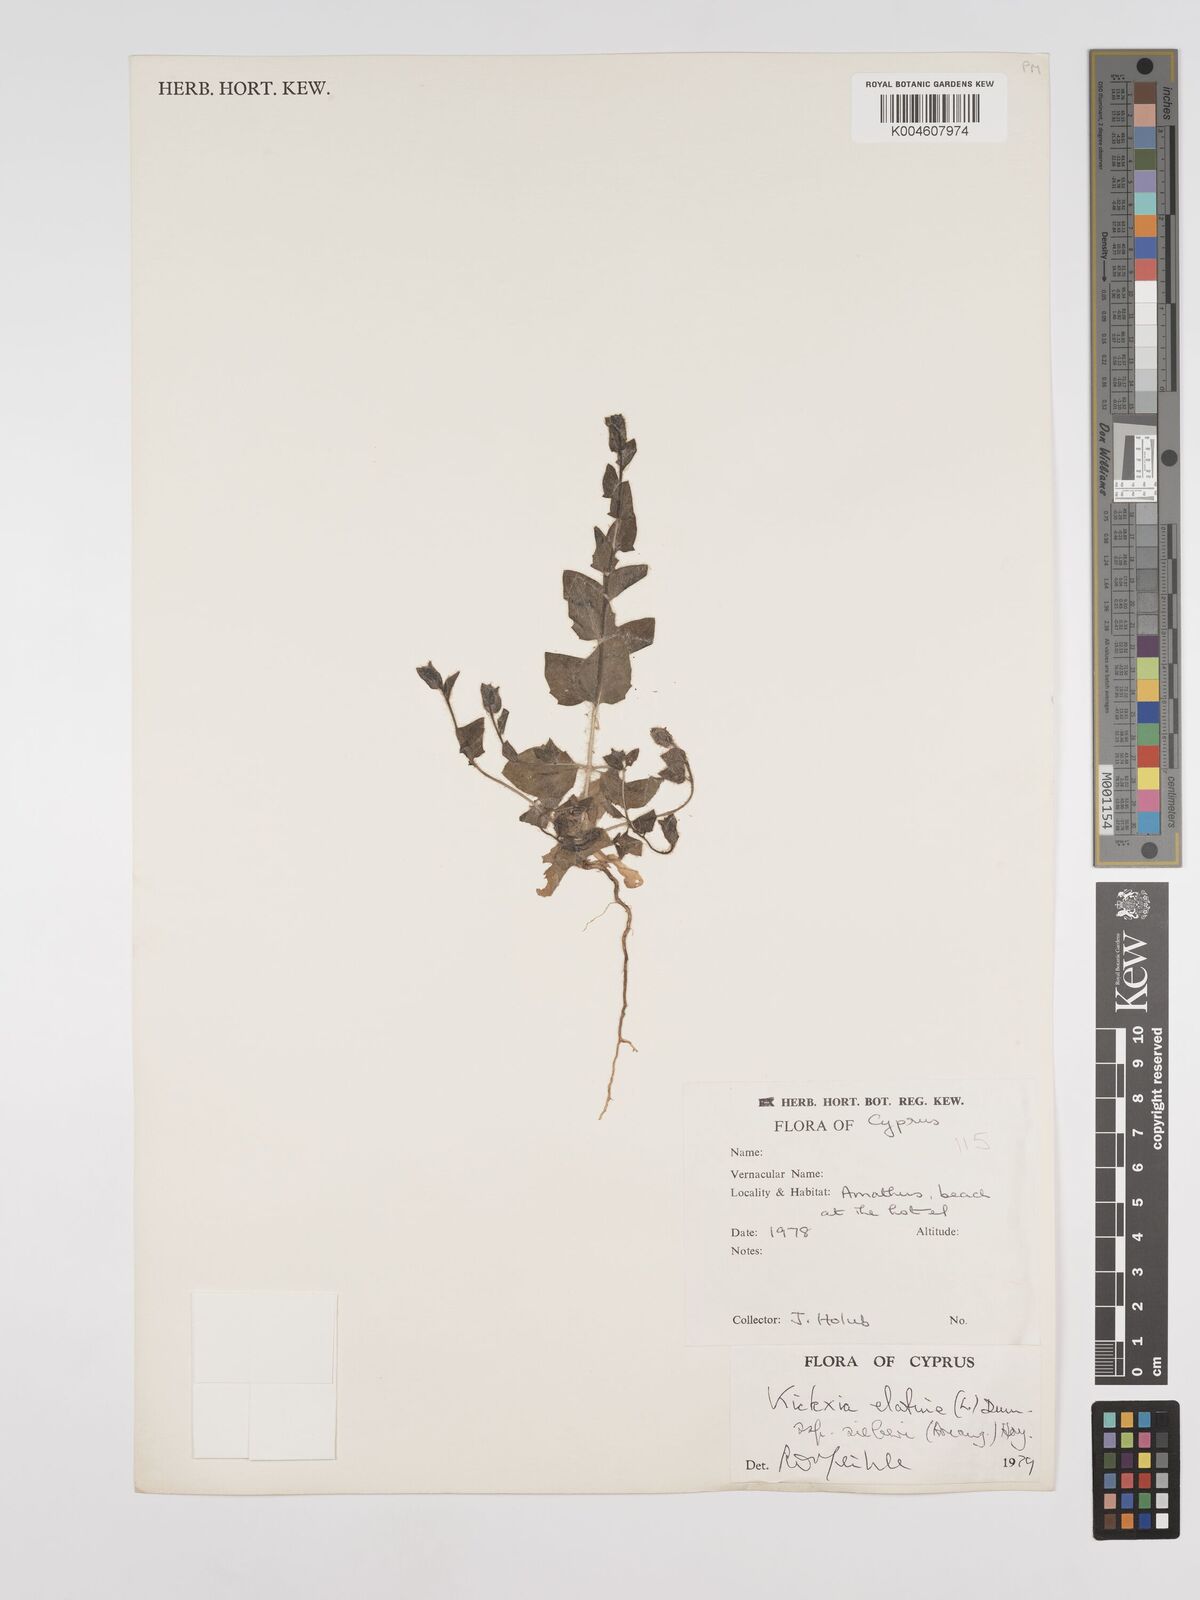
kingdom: Plantae
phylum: Tracheophyta
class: Magnoliopsida
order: Lamiales
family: Plantaginaceae
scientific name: Plantaginaceae
